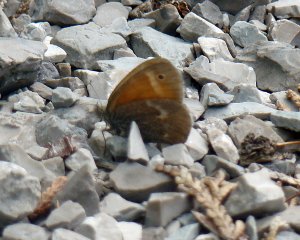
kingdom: Animalia
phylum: Arthropoda
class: Insecta
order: Lepidoptera
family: Nymphalidae
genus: Coenonympha
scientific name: Coenonympha tullia
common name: Large Heath
